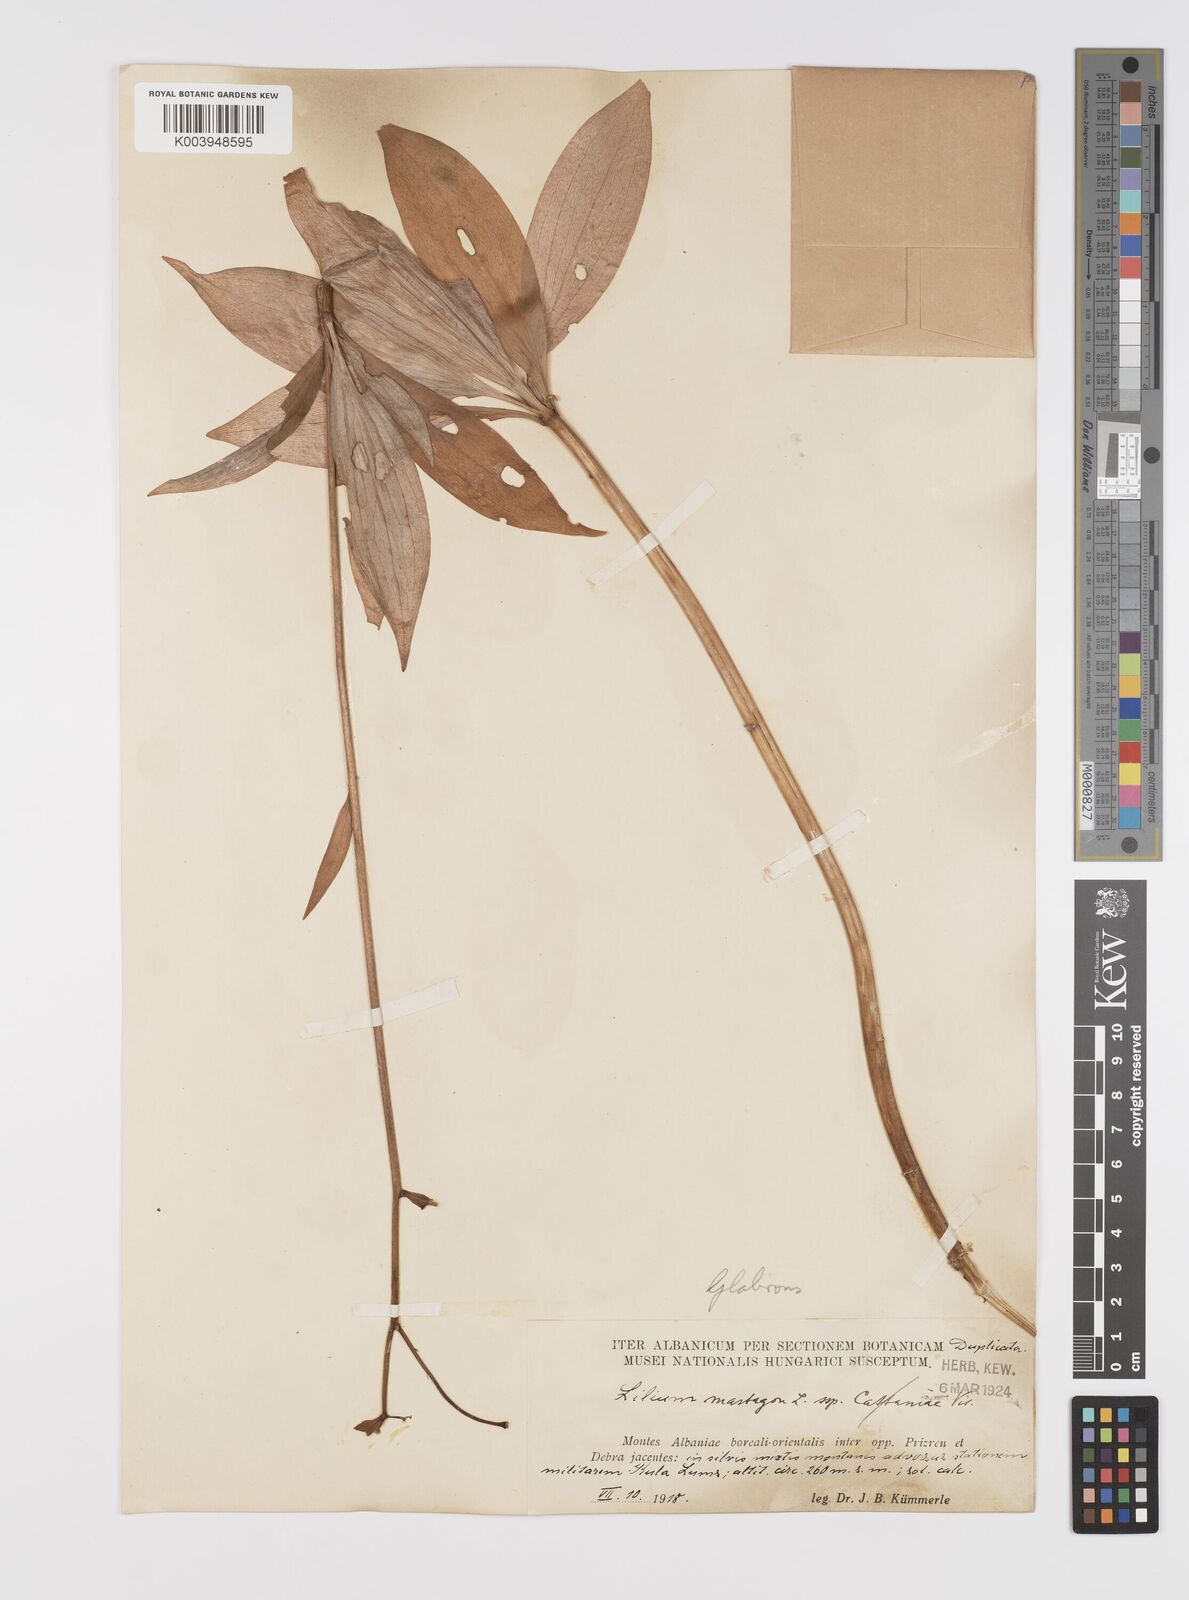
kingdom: Plantae
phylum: Tracheophyta
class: Liliopsida
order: Liliales
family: Liliaceae
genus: Lilium
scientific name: Lilium martagon
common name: Martagon lily
